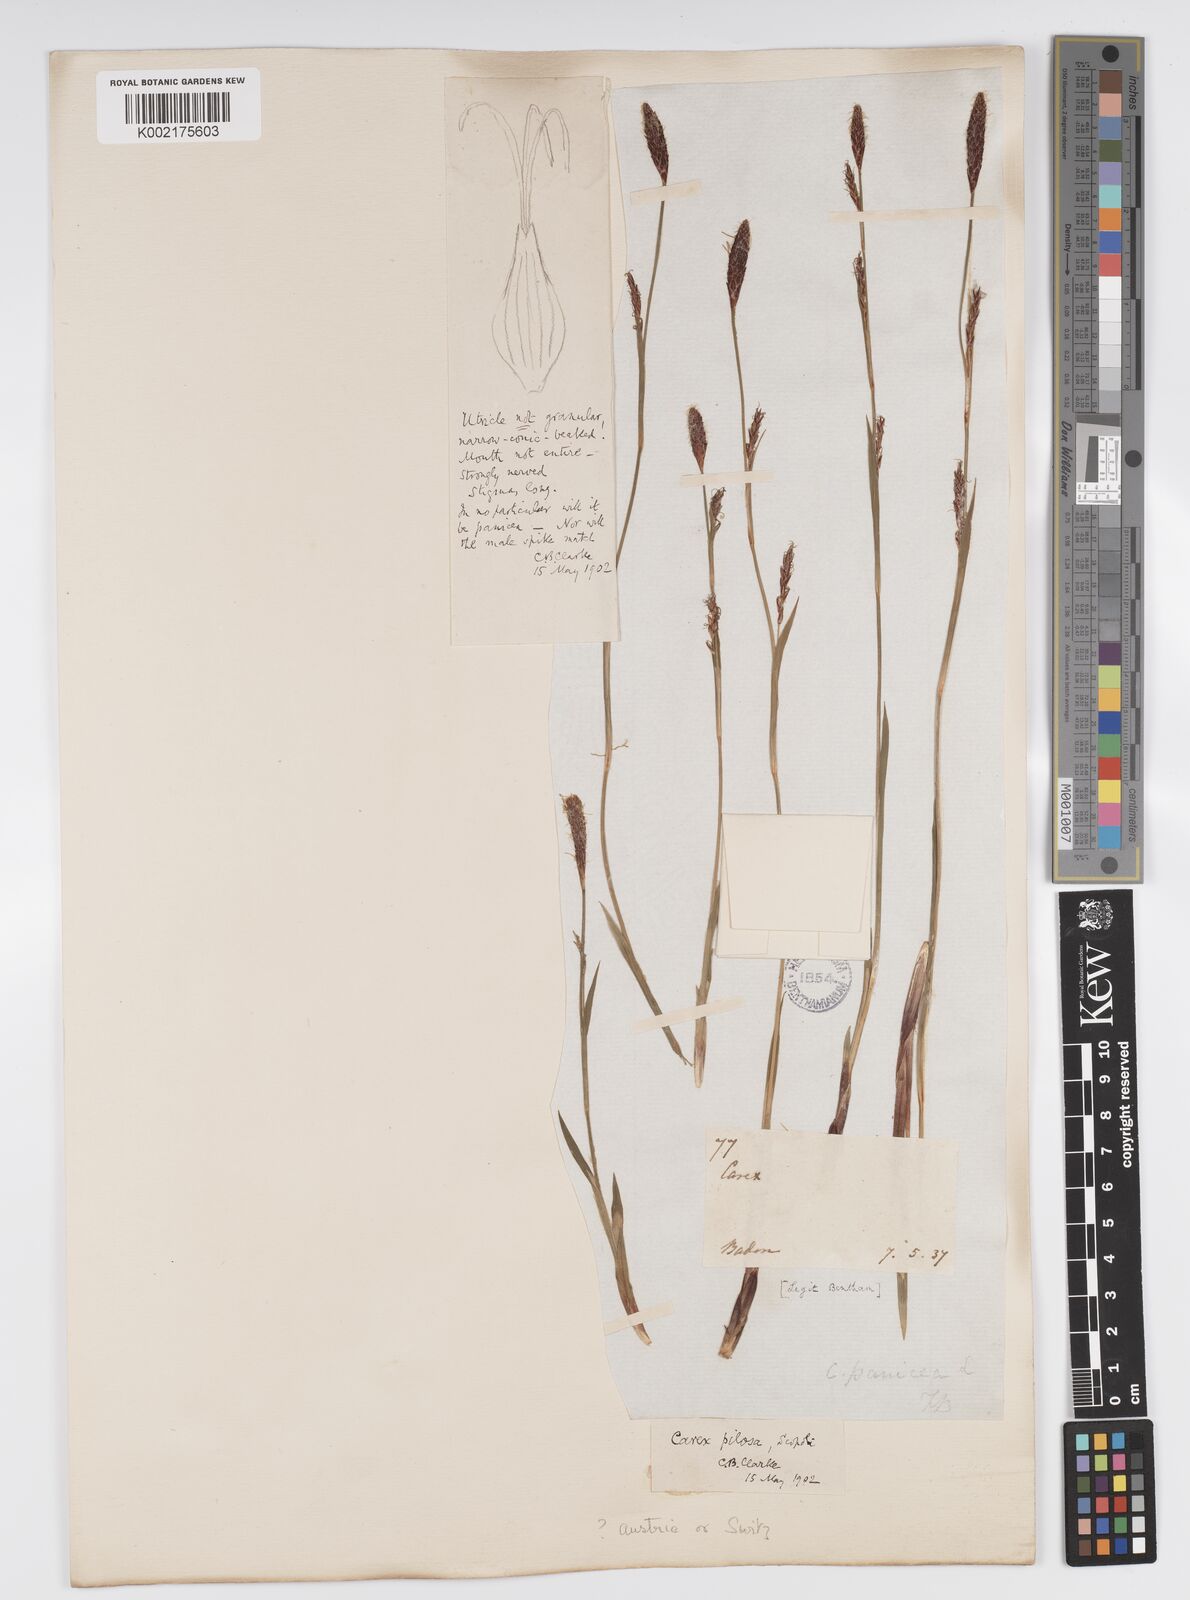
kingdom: Plantae
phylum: Tracheophyta
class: Liliopsida
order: Poales
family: Cyperaceae
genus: Carex
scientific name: Carex pilosa
